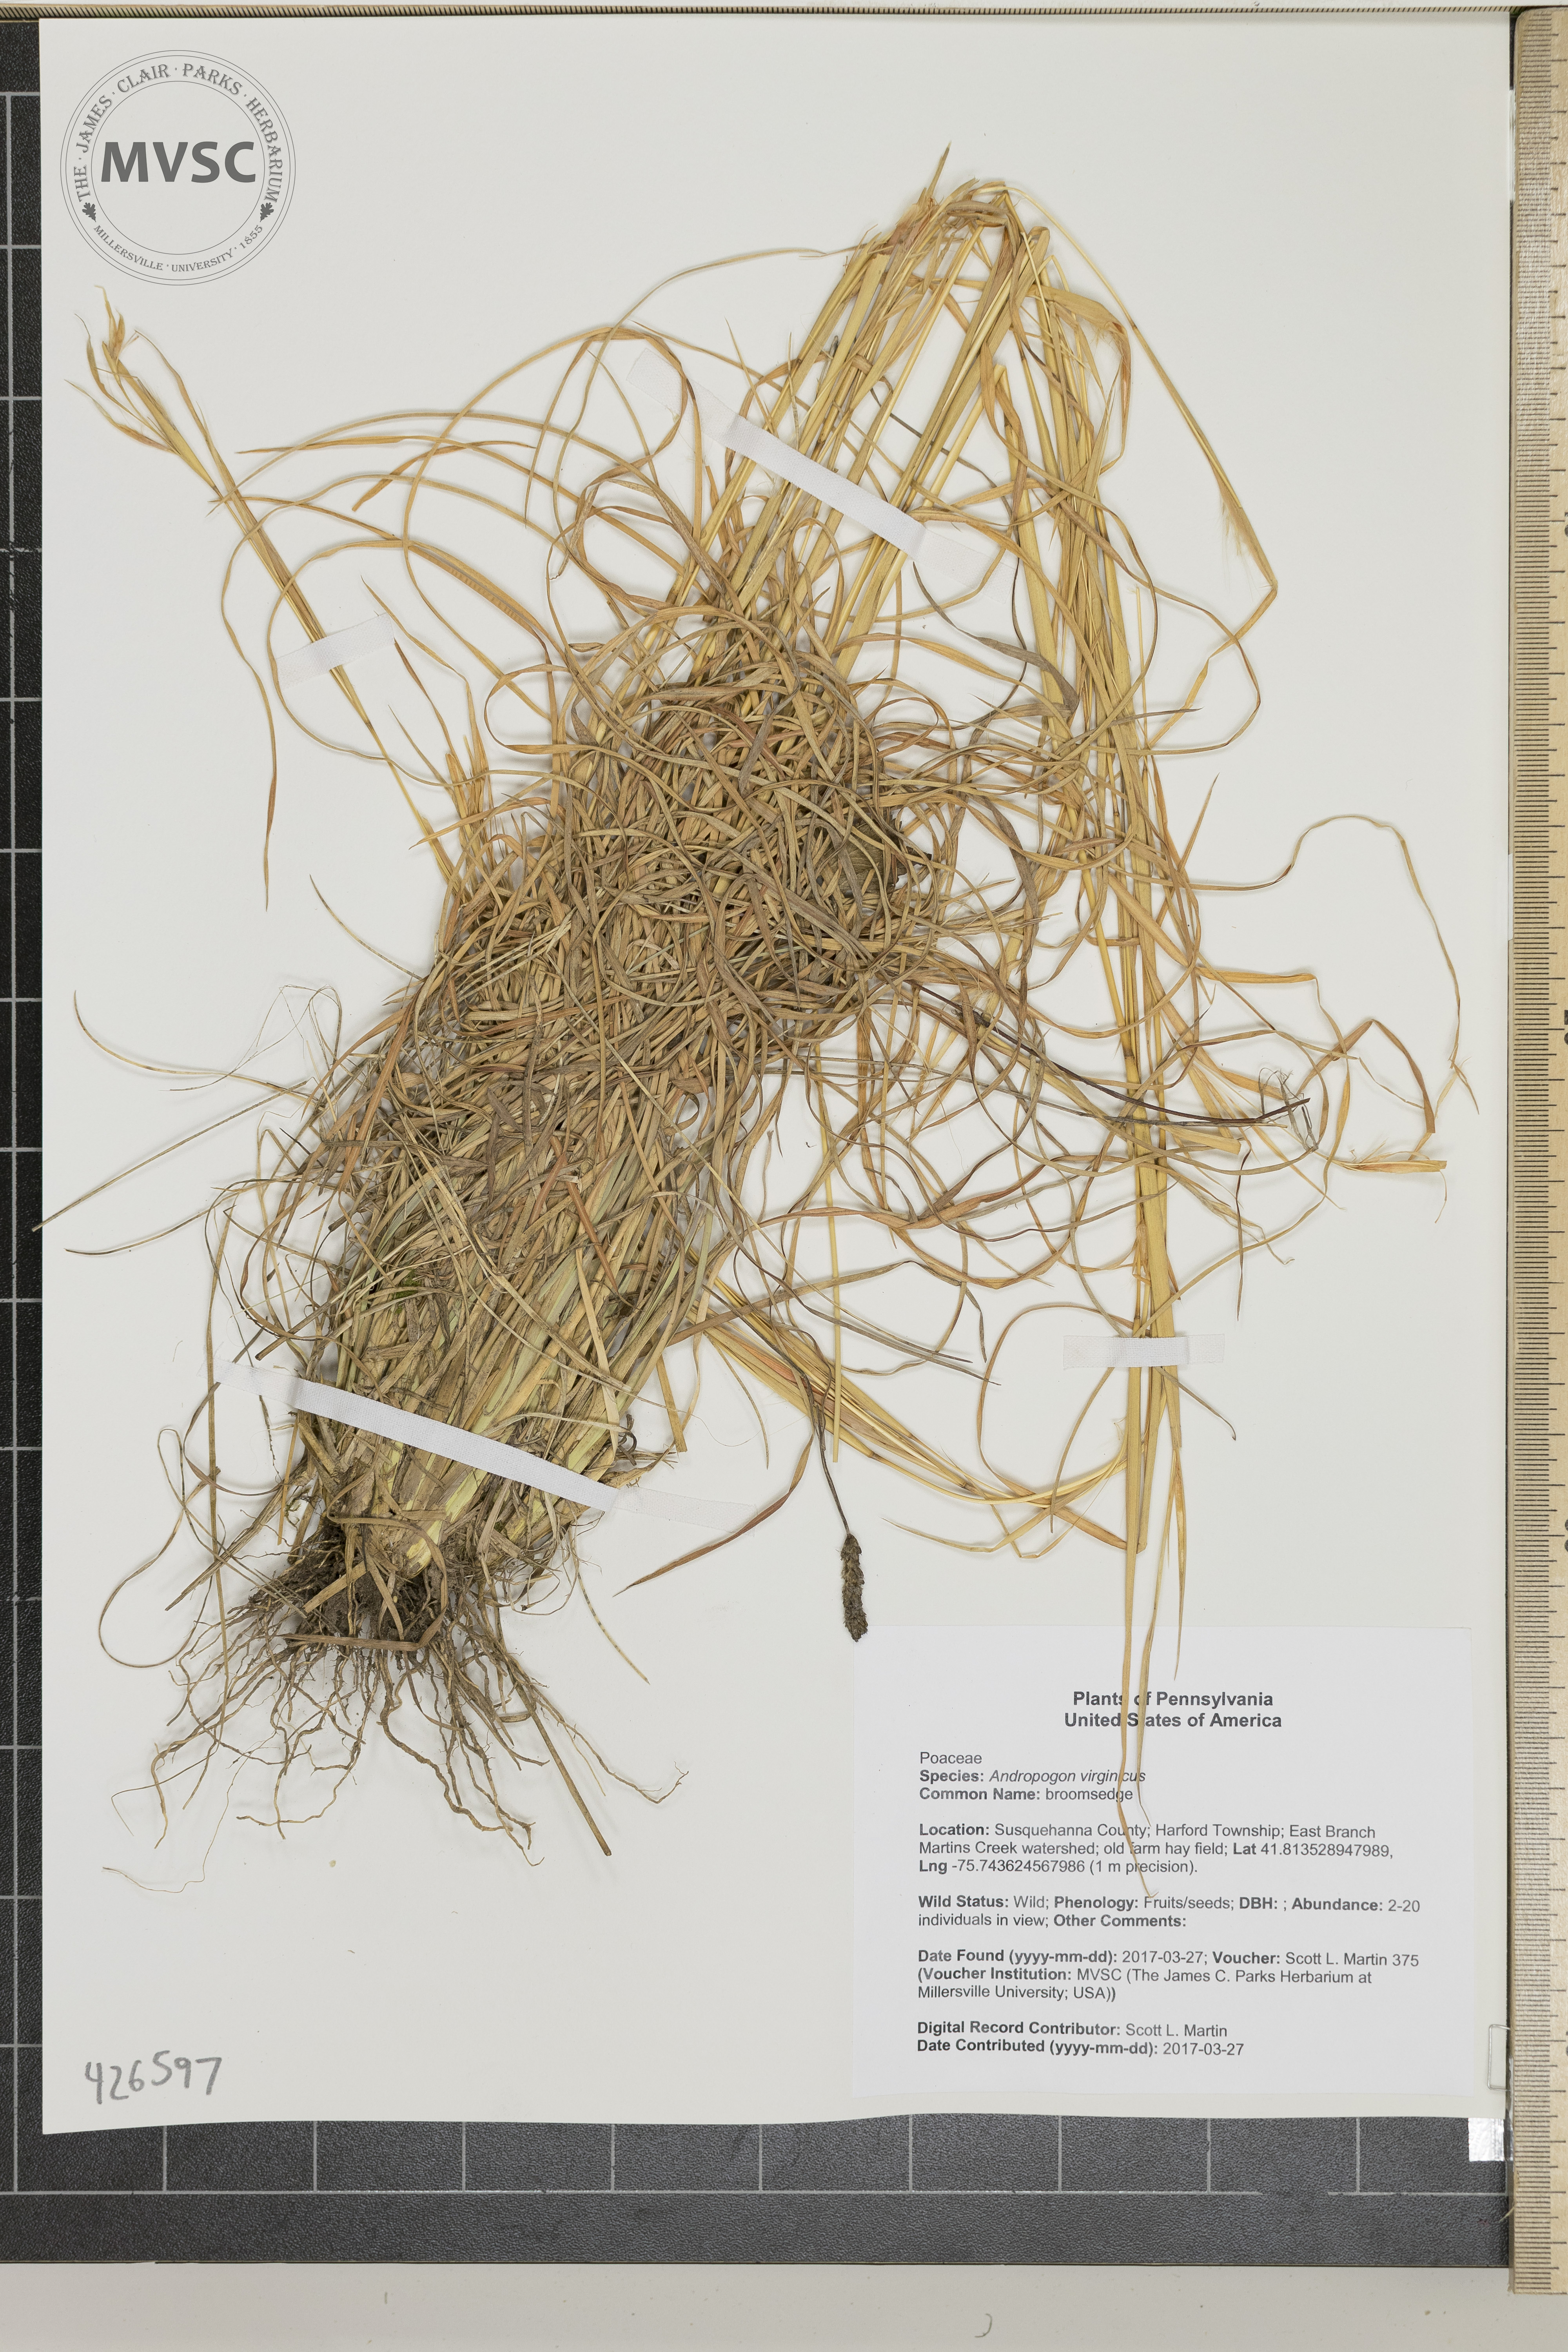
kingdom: Plantae
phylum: Tracheophyta
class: Liliopsida
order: Poales
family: Poaceae
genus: Andropogon
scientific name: Andropogon virginicus
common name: broomsedge
